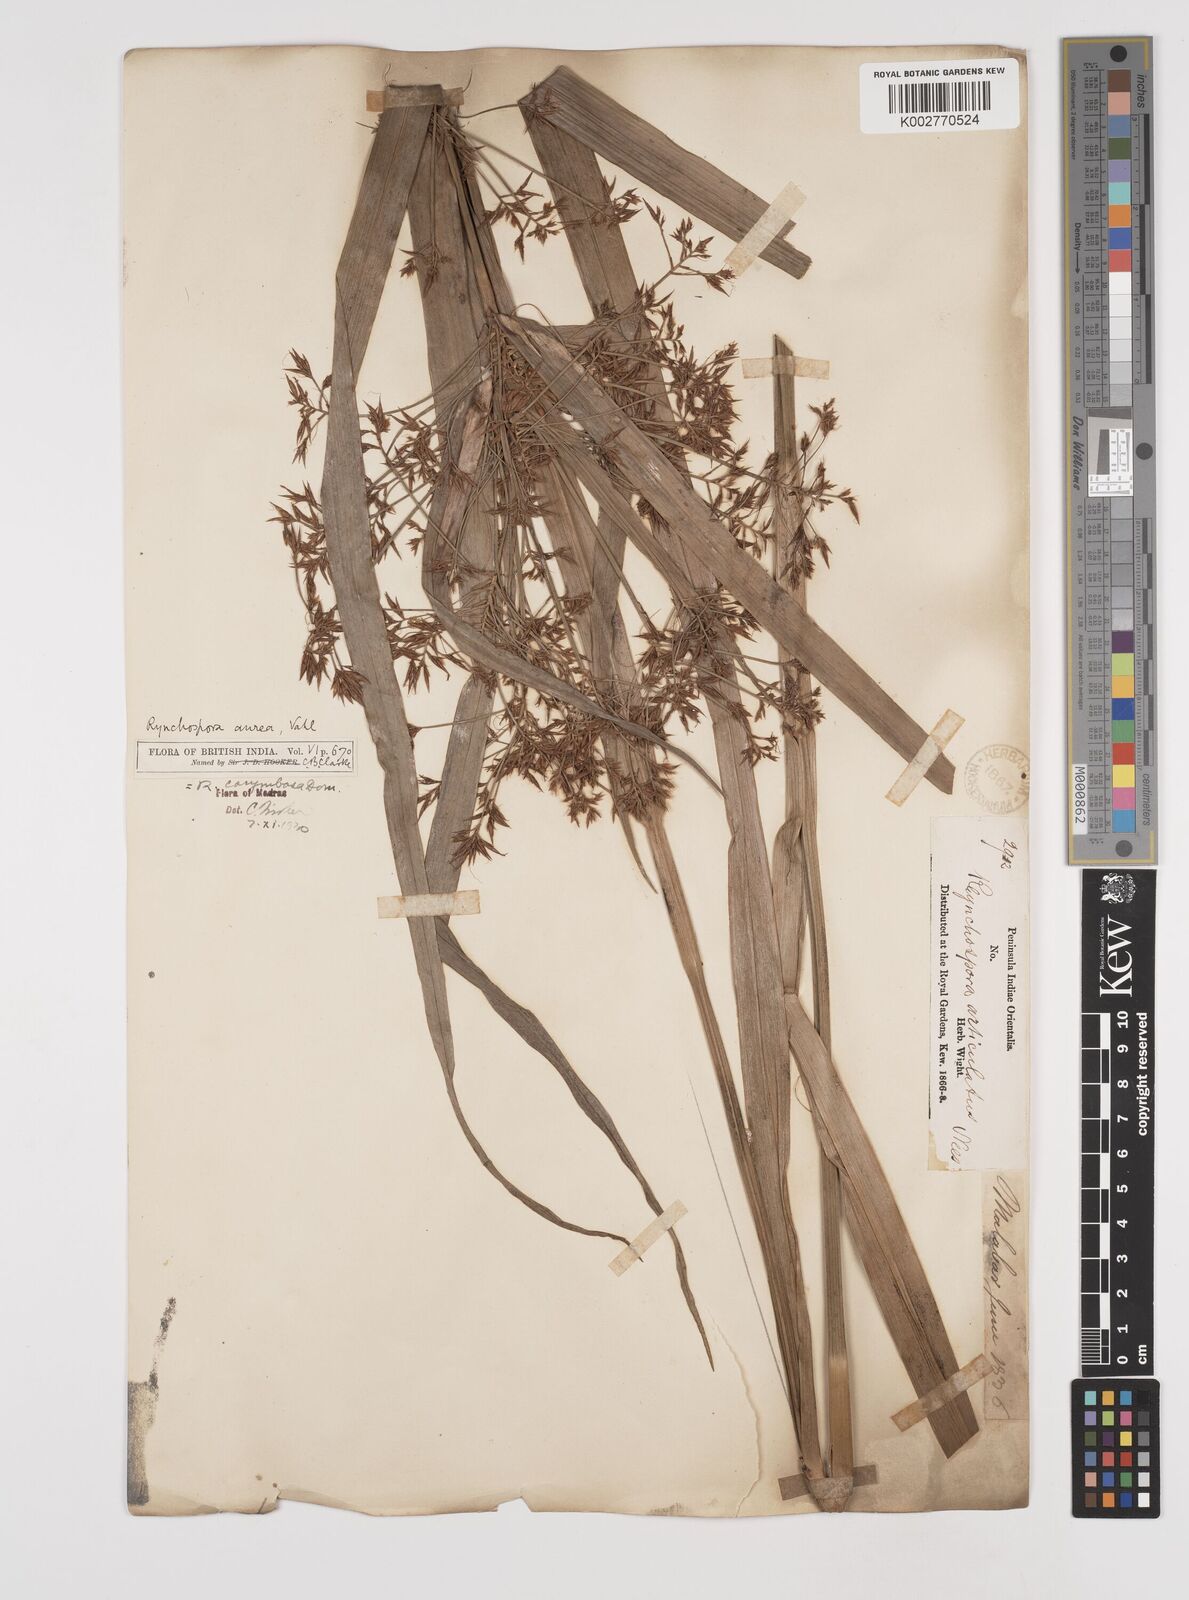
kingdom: Plantae
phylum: Tracheophyta
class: Liliopsida
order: Poales
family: Cyperaceae
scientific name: Cyperaceae
